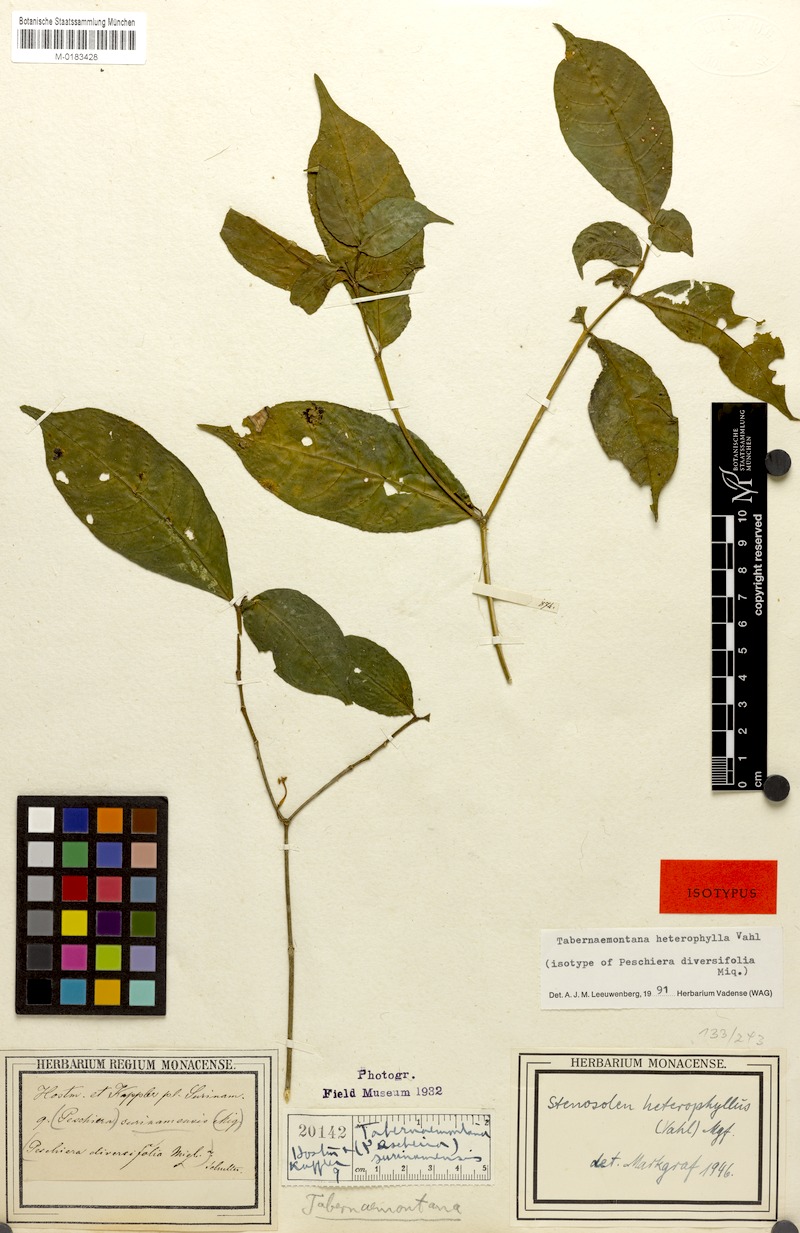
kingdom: Plantae
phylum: Tracheophyta
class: Magnoliopsida
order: Gentianales
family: Apocynaceae
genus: Tabernaemontana
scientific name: Tabernaemontana heterophylla
